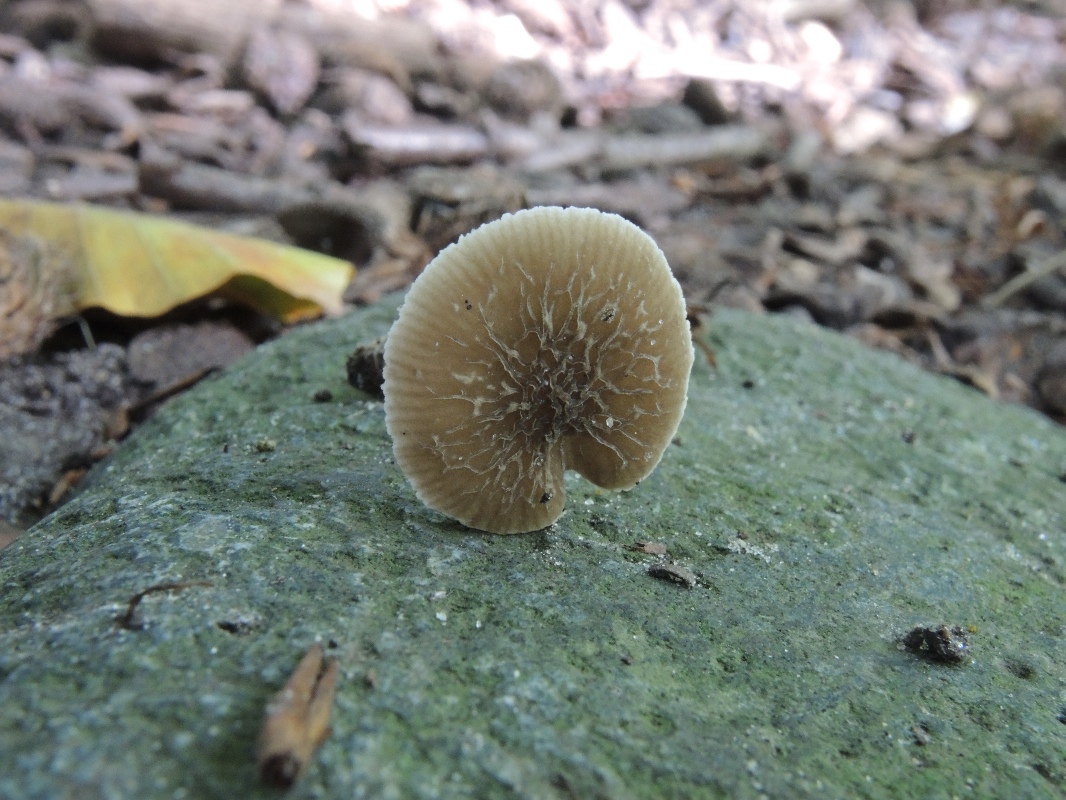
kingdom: Fungi
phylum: Basidiomycota
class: Agaricomycetes
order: Agaricales
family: Pluteaceae
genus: Pluteus
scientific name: Pluteus
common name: gråstokket skærmhat
